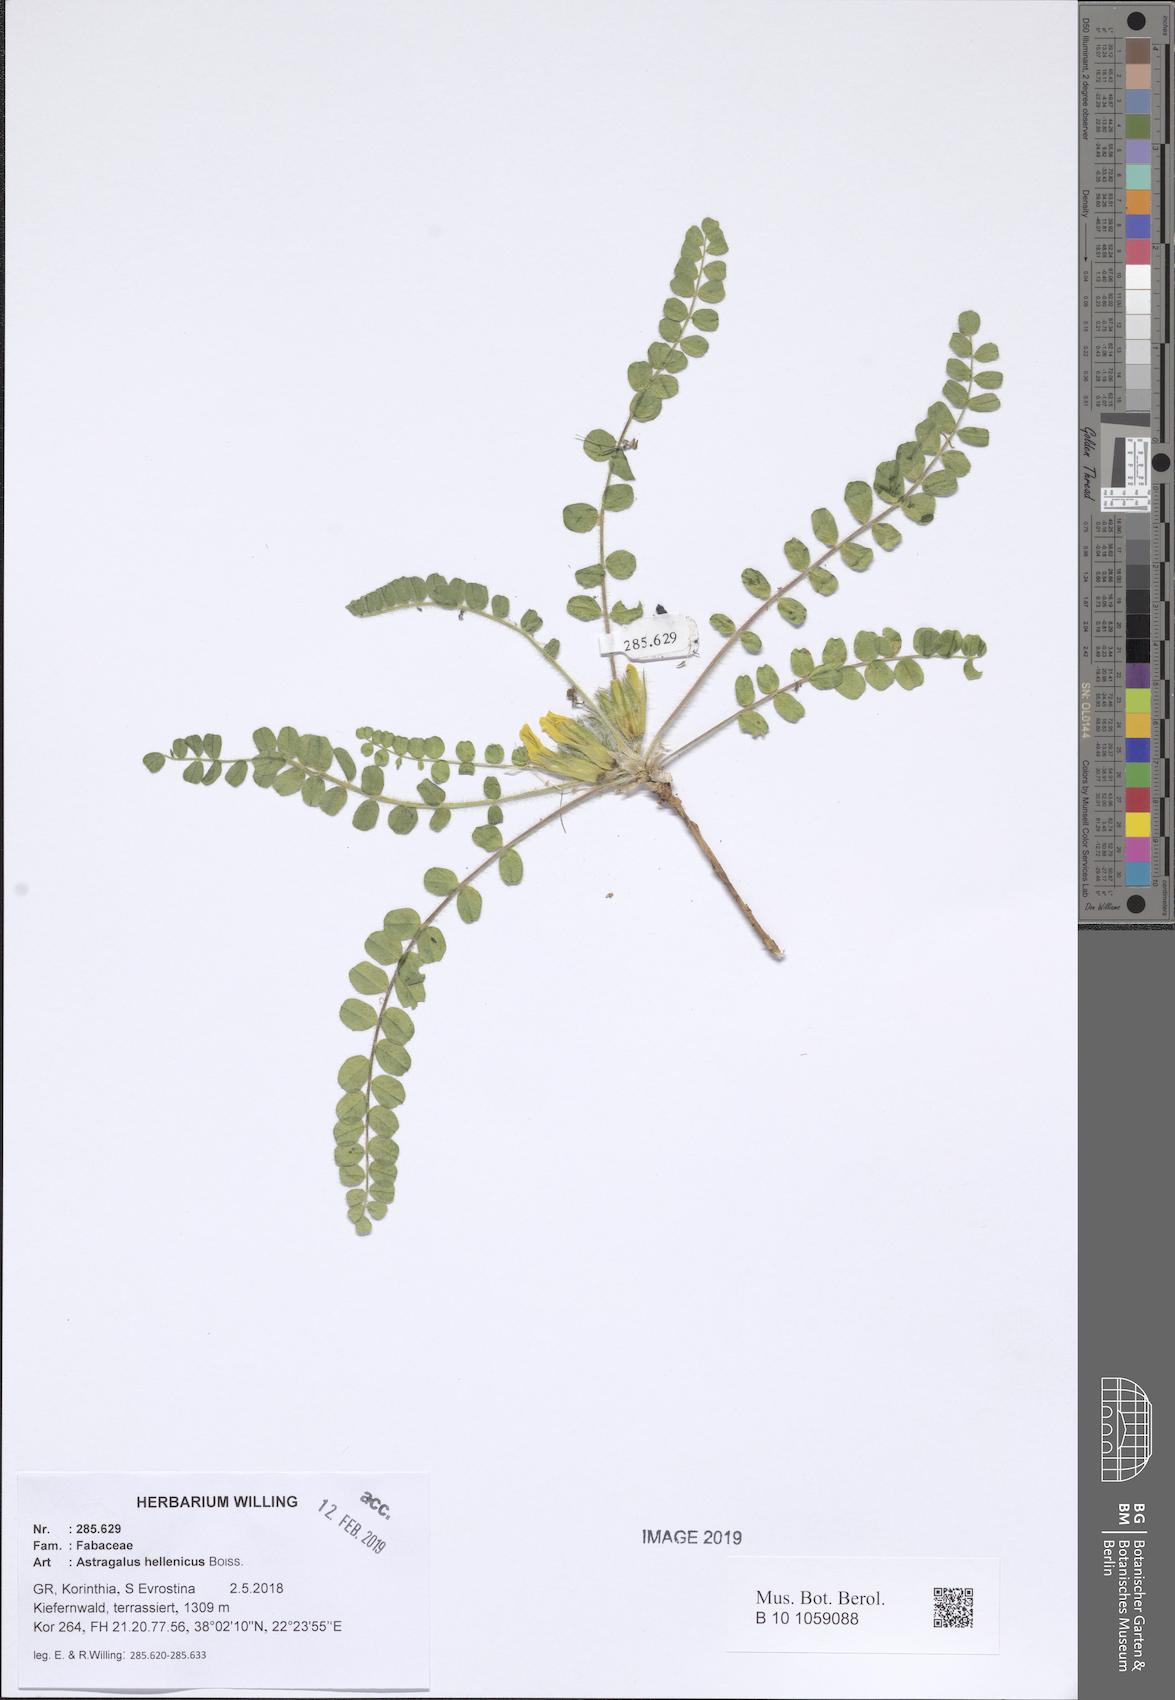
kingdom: Plantae
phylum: Tracheophyta
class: Magnoliopsida
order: Fabales
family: Fabaceae
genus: Astragalus
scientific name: Astragalus exscapus
